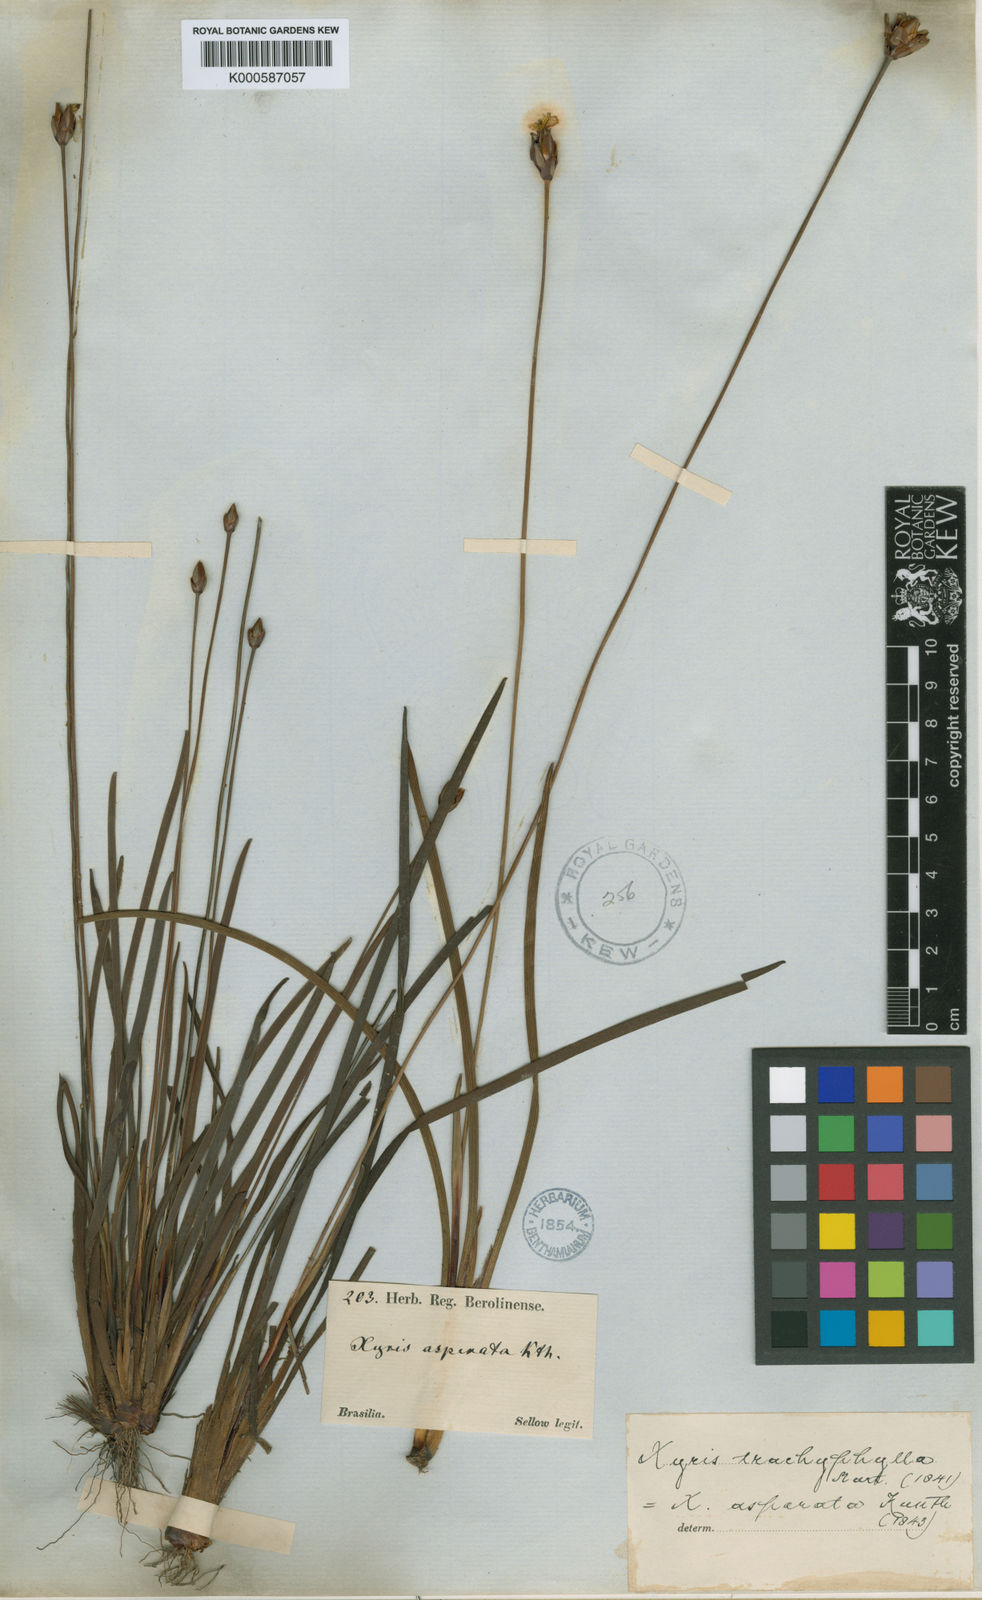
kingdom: Plantae
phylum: Tracheophyta
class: Liliopsida
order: Poales
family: Xyridaceae
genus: Xyris
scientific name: Xyris trachyphylla
